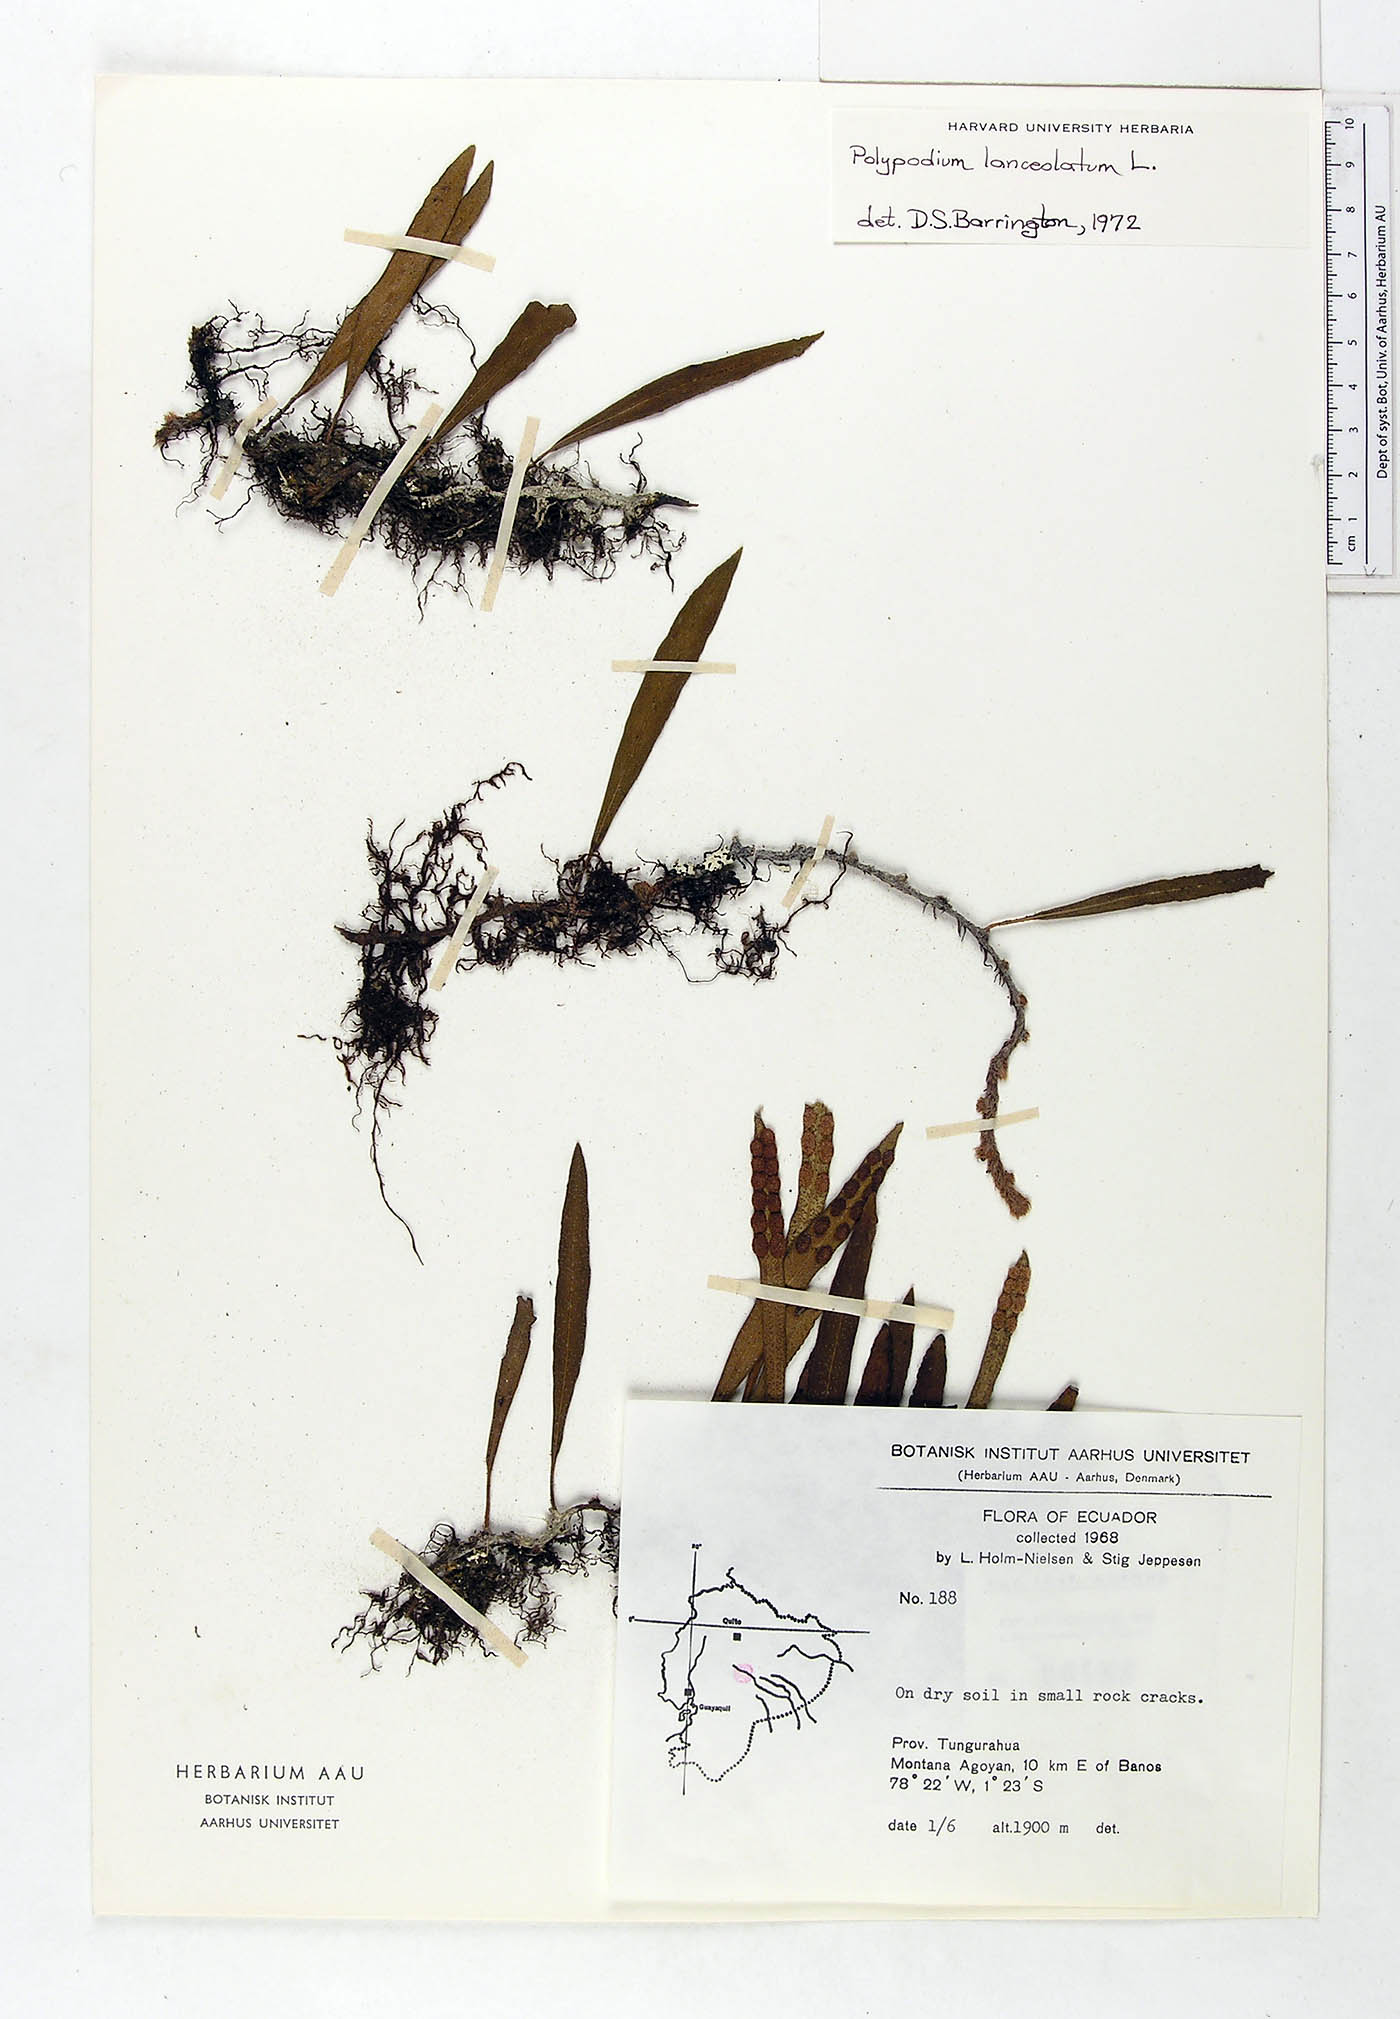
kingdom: Plantae
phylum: Tracheophyta
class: Polypodiopsida
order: Polypodiales
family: Polypodiaceae
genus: Pleopeltis
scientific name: Pleopeltis macrocarpa
